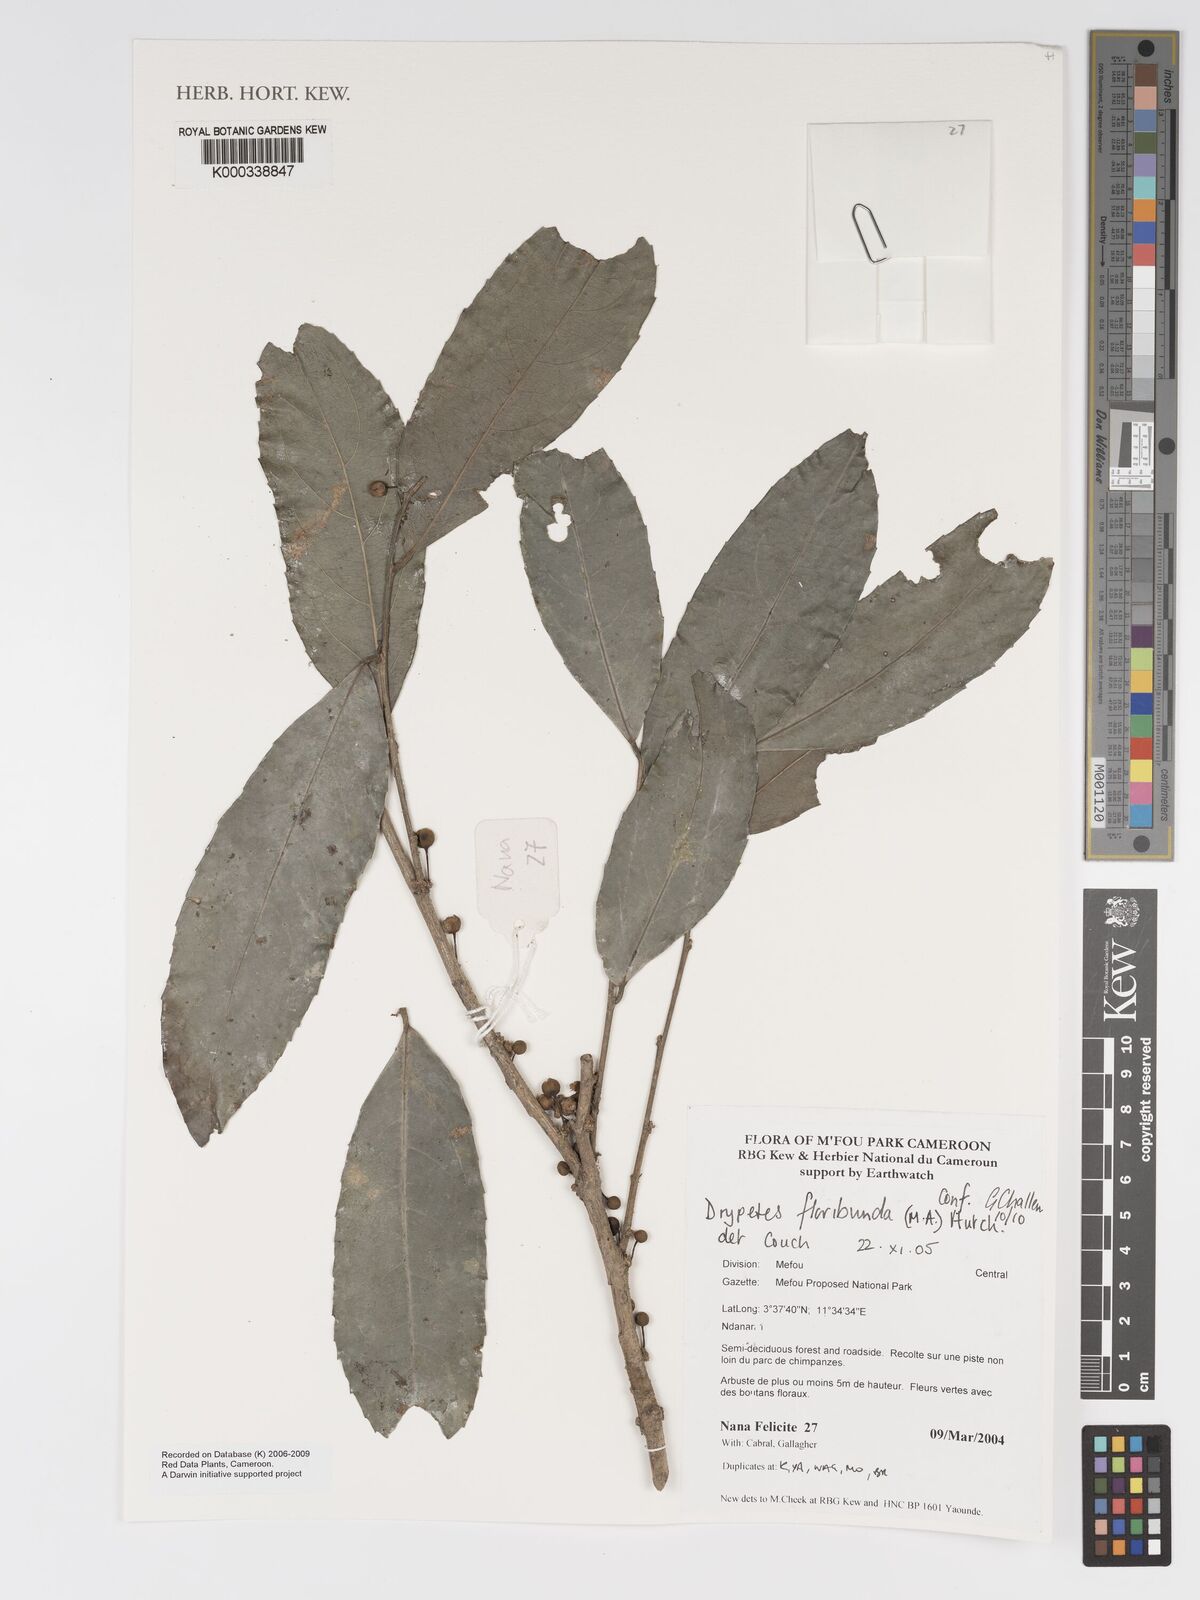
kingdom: Plantae
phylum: Tracheophyta
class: Magnoliopsida
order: Malpighiales
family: Putranjivaceae
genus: Drypetes
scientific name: Drypetes
